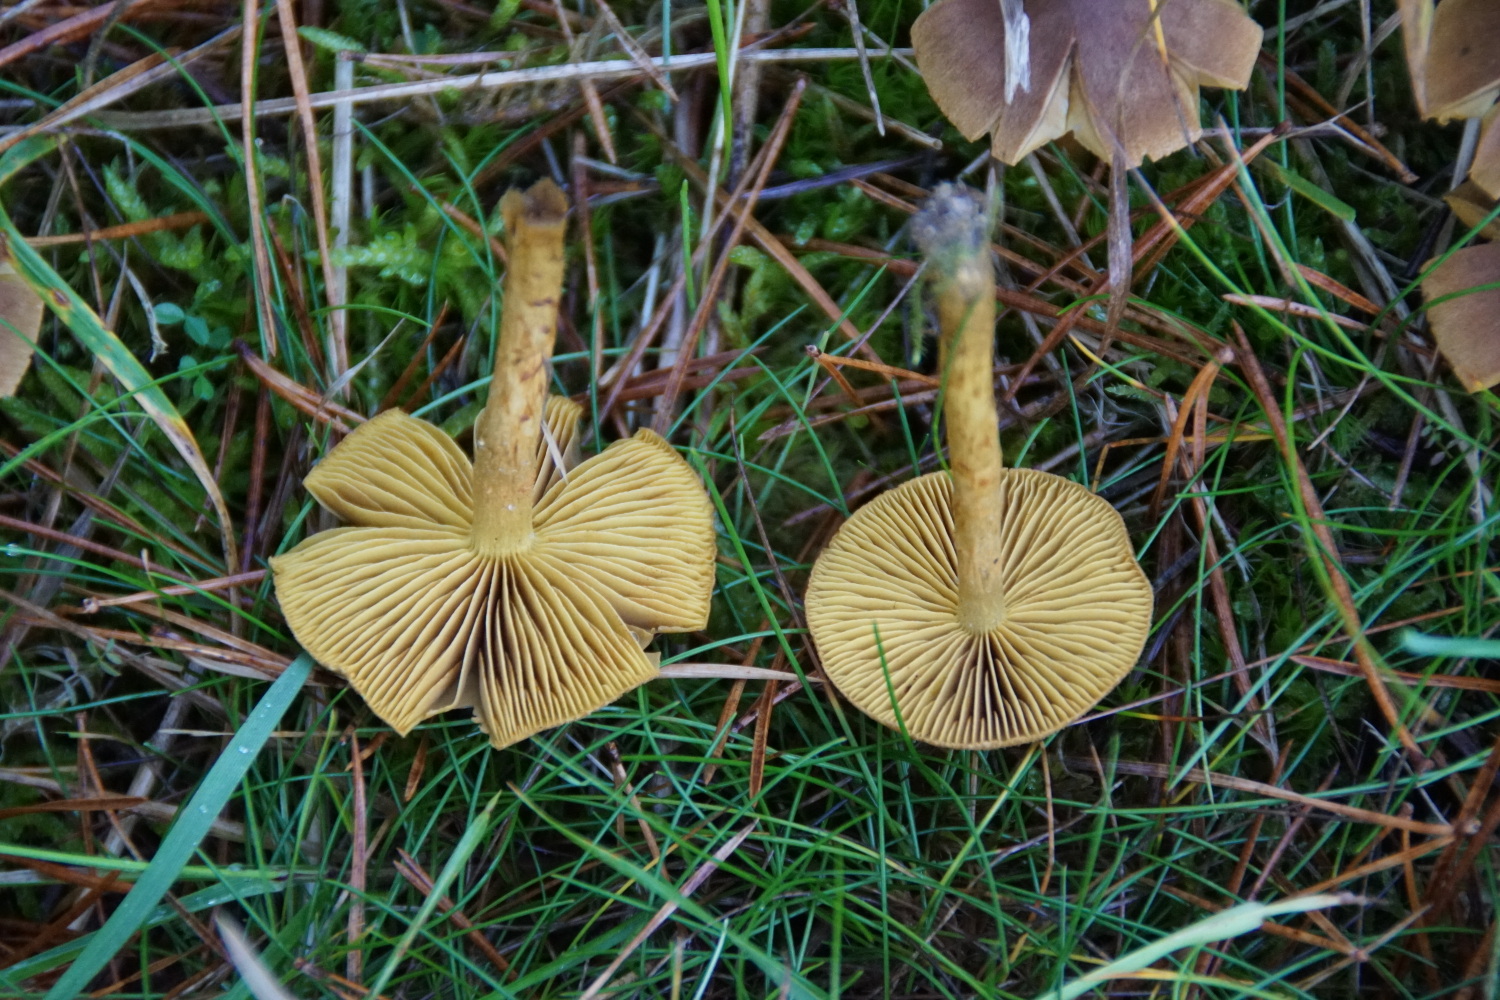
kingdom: Fungi
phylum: Basidiomycota
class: Agaricomycetes
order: Agaricales
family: Cortinariaceae
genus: Cortinarius
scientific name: Cortinarius
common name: gulbladet slørhat
